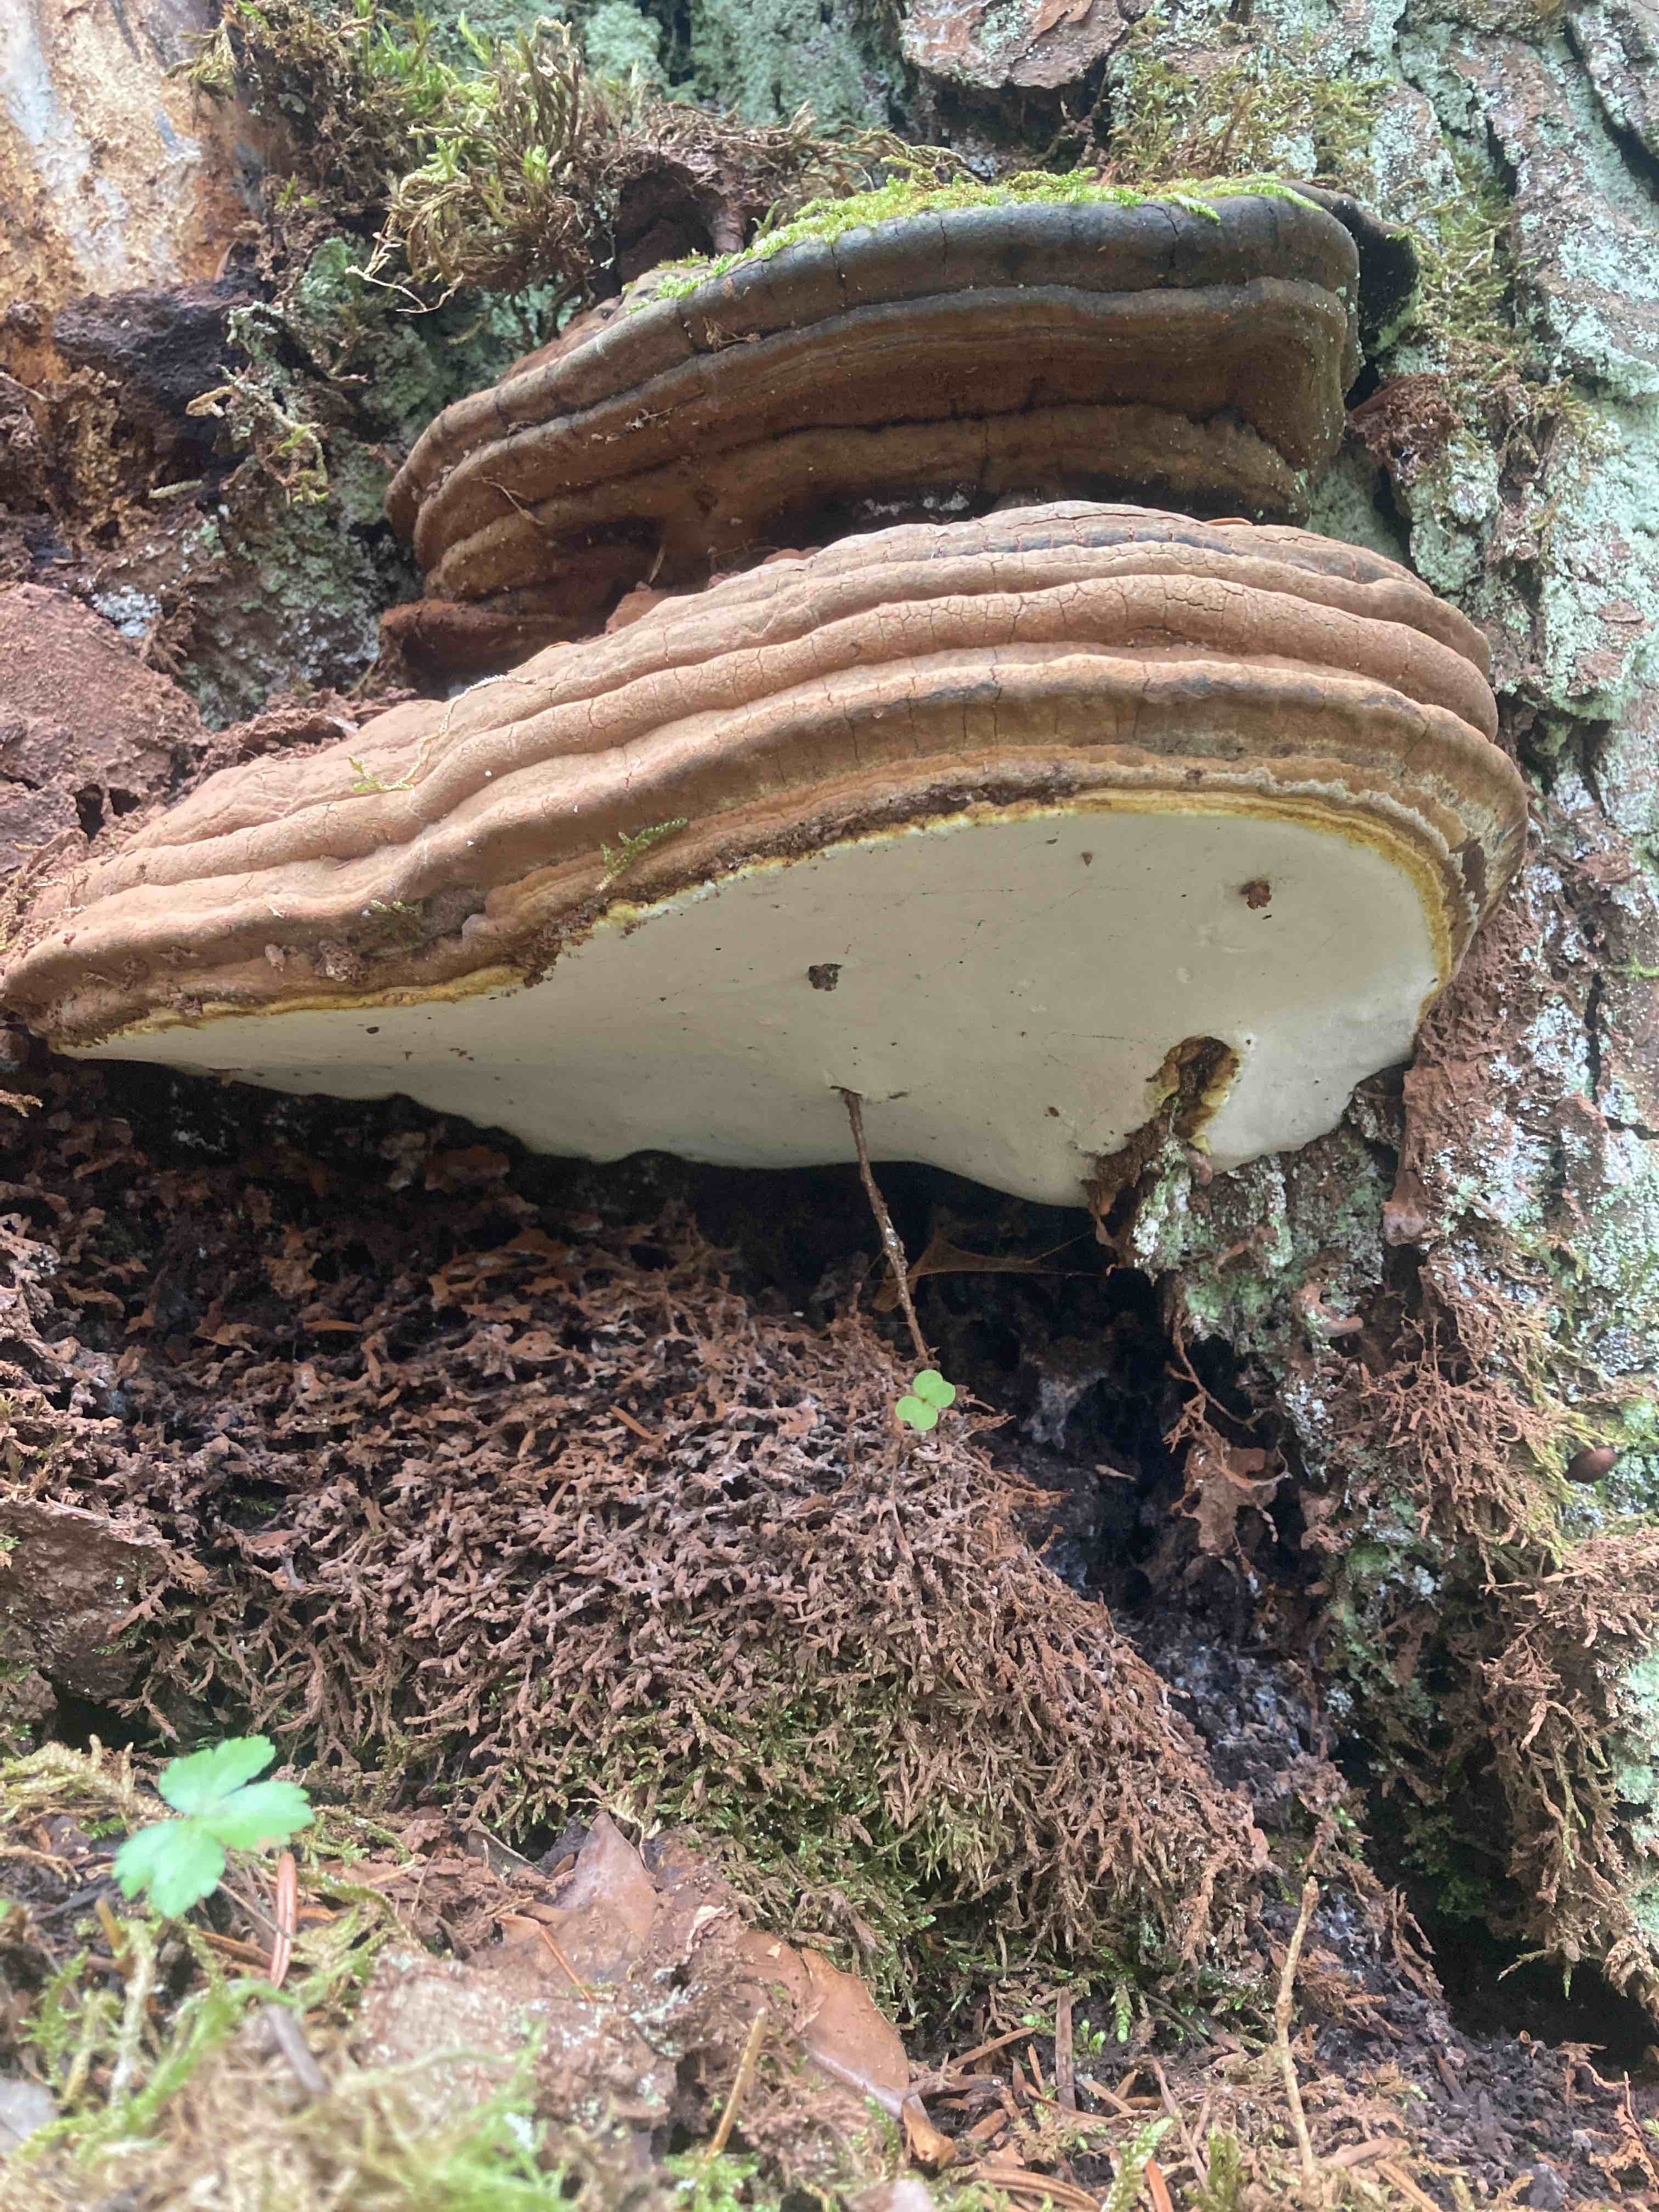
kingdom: Fungi
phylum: Basidiomycota
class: Agaricomycetes
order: Polyporales
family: Polyporaceae
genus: Ganoderma
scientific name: Ganoderma adspersum
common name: grov lakporesvamp
